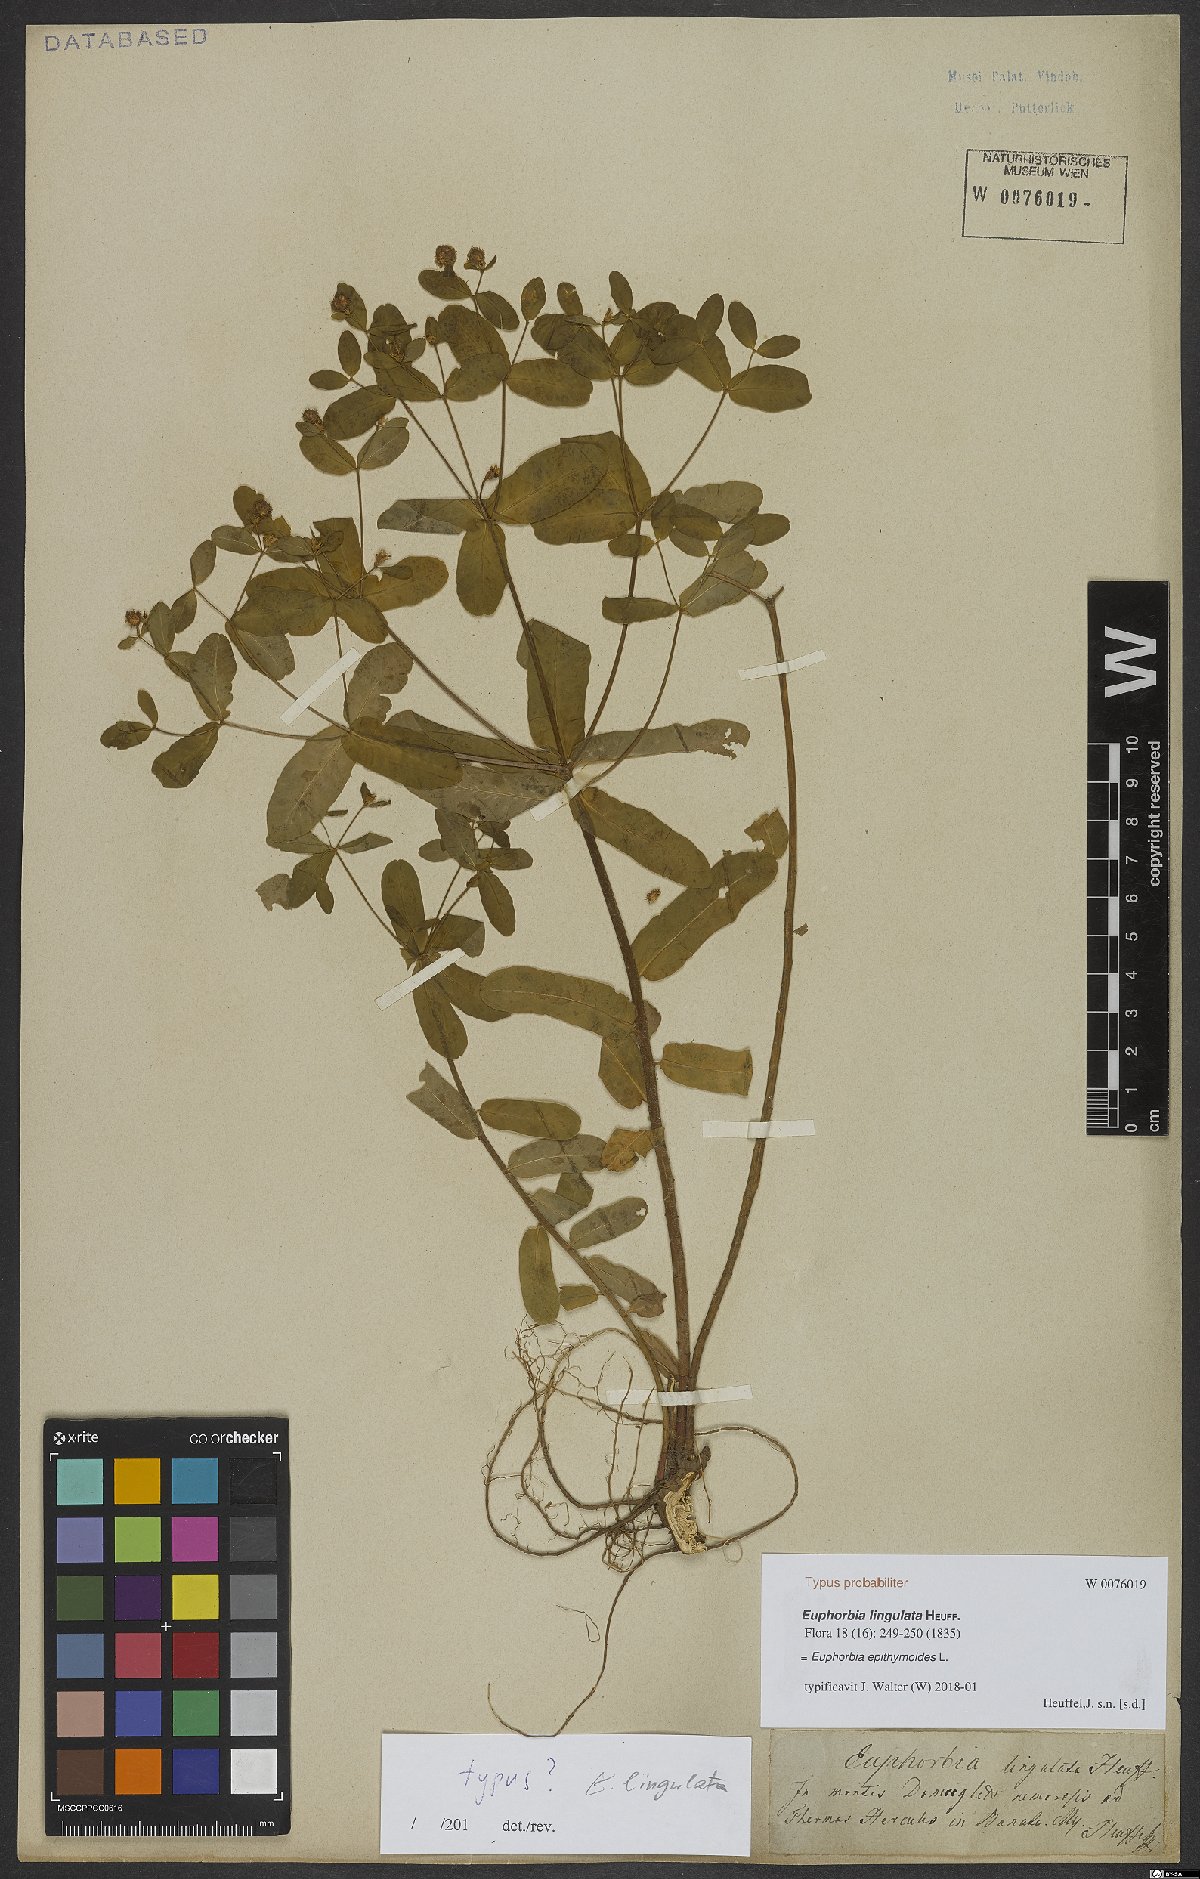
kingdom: Plantae
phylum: Tracheophyta
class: Magnoliopsida
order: Malpighiales
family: Euphorbiaceae
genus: Euphorbia
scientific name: Euphorbia epithymoides
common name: Cushion spurge
